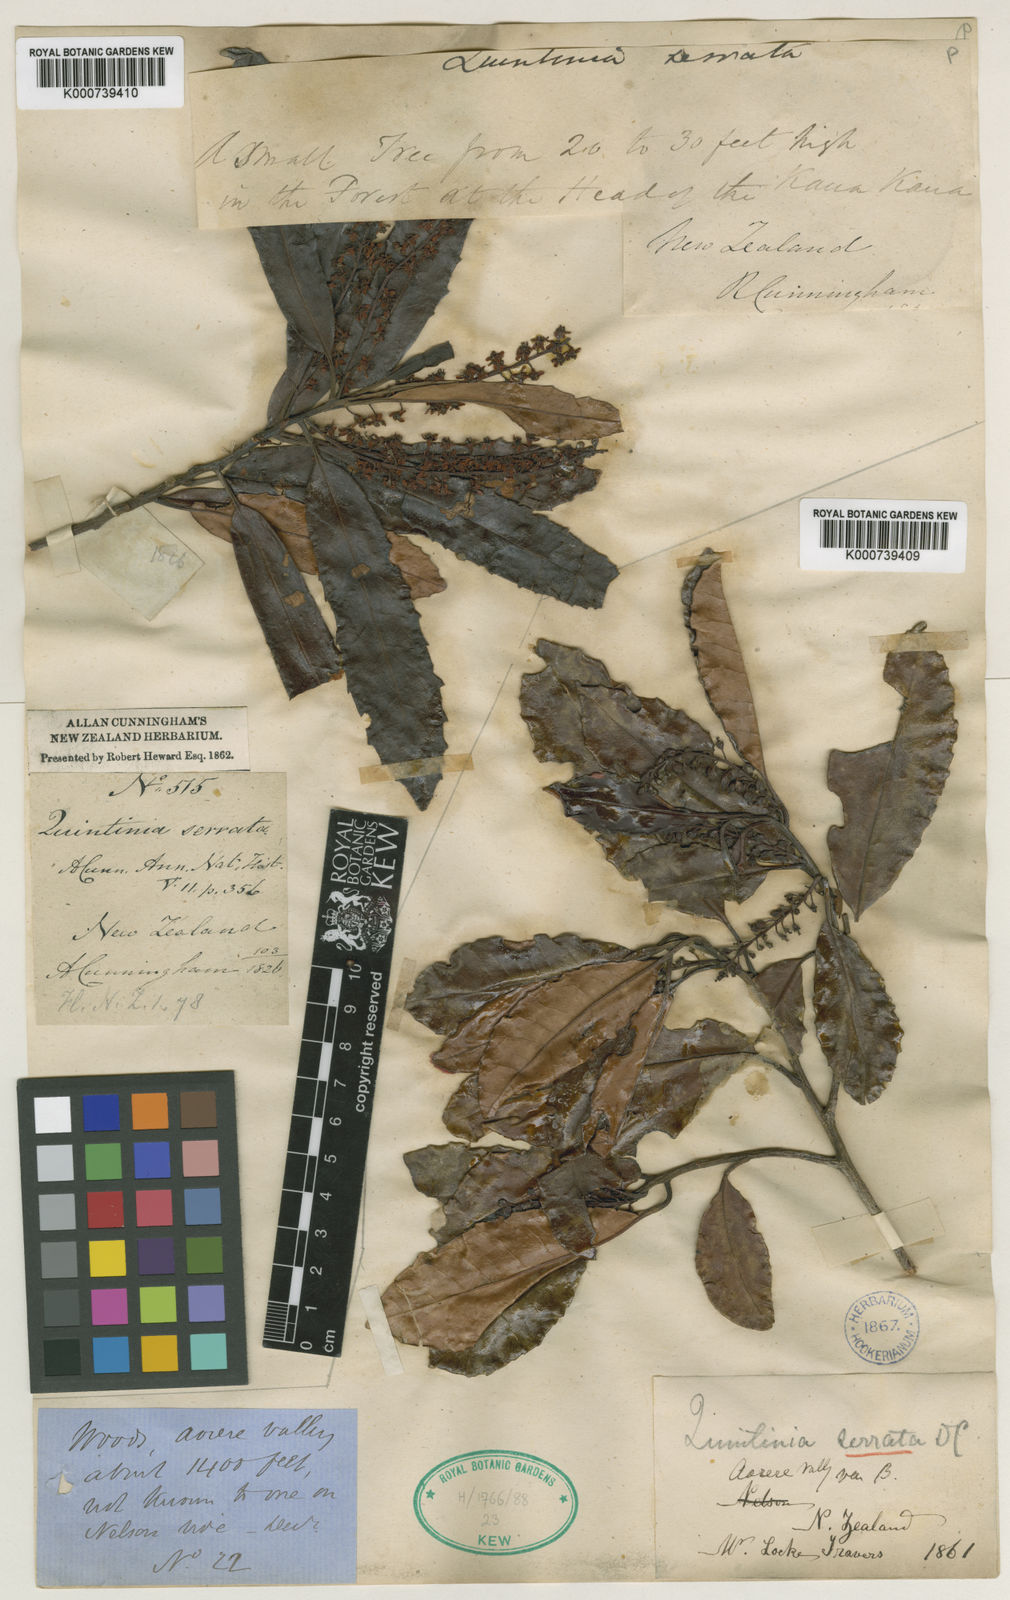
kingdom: Plantae
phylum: Tracheophyta
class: Magnoliopsida
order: Paracryphiales
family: Paracryphiaceae
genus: Quintinia
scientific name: Quintinia serrata
